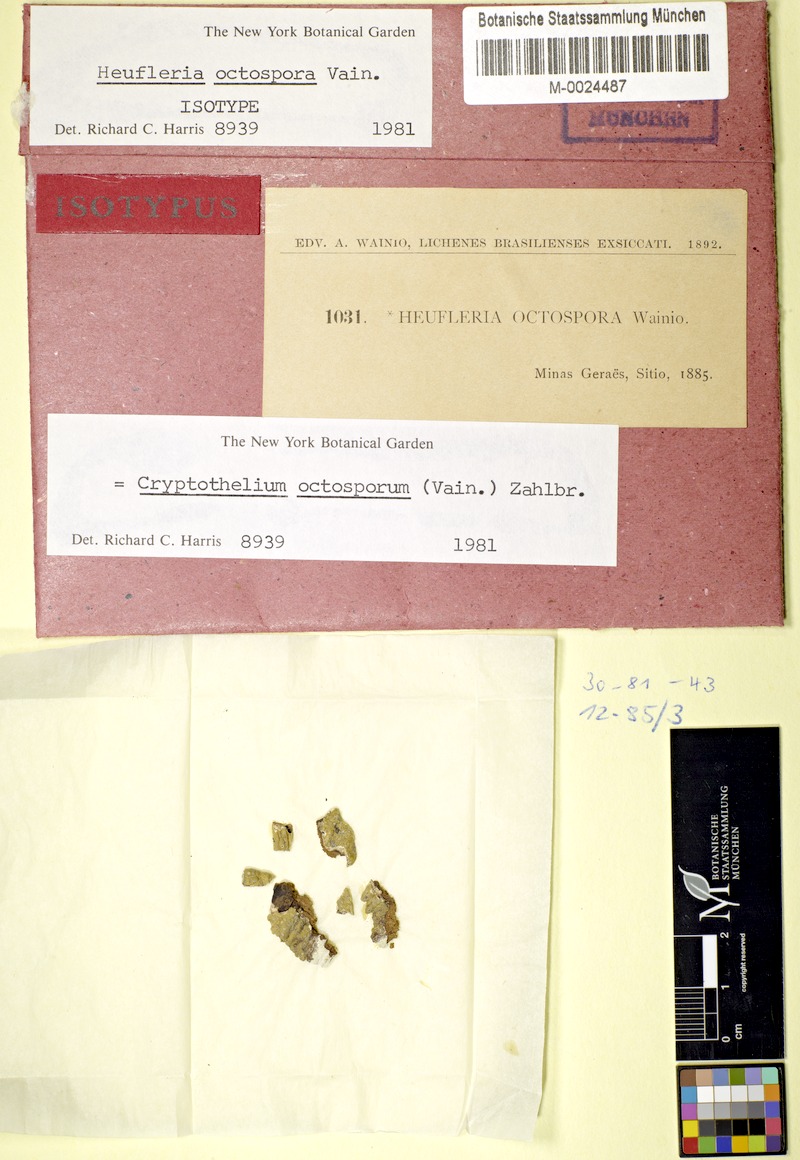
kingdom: Fungi
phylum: Ascomycota
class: Dothideomycetes
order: Trypetheliales
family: Trypetheliaceae
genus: Astrothelium
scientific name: Astrothelium octosporum
